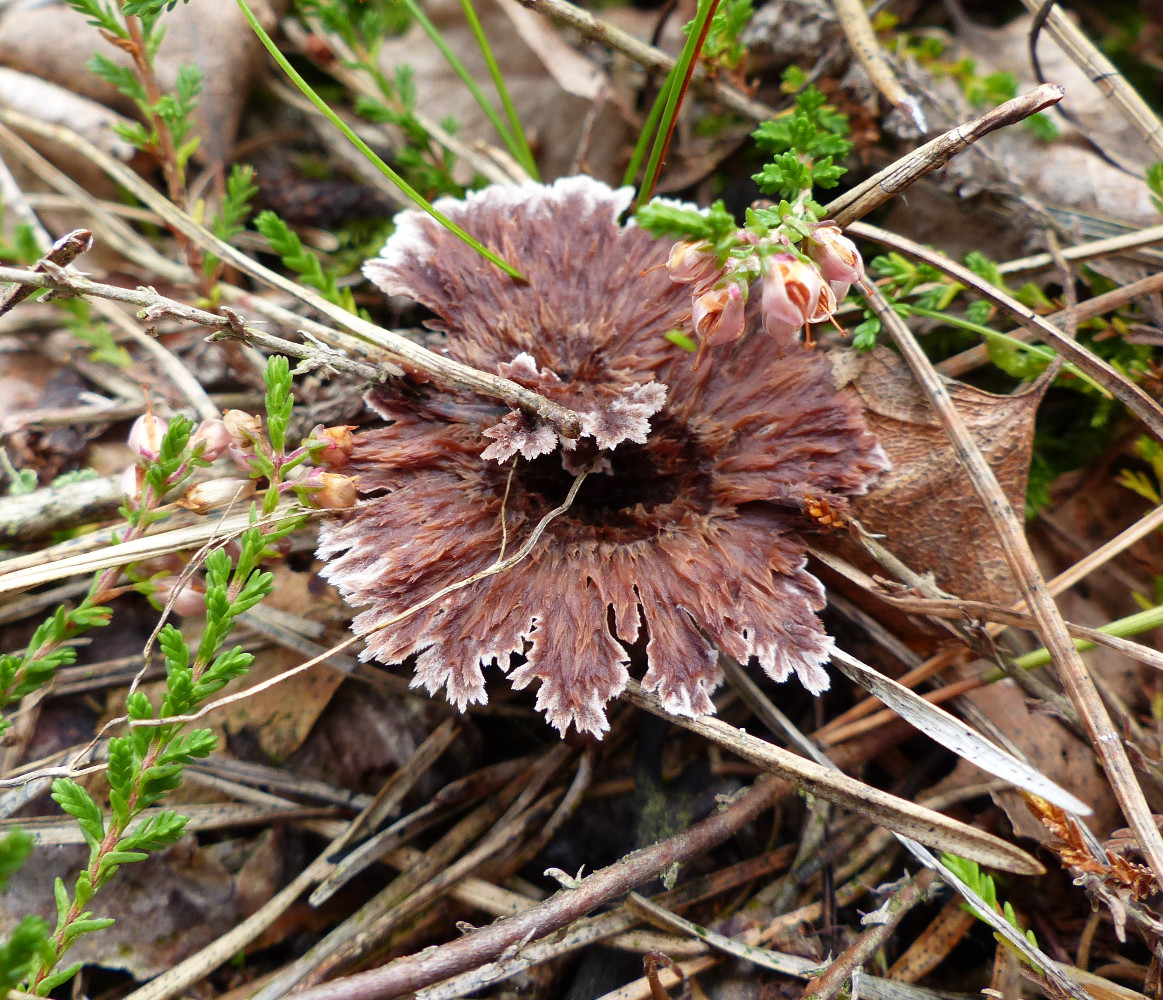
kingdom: Fungi
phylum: Basidiomycota
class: Agaricomycetes
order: Thelephorales
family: Thelephoraceae
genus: Thelephora
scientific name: Thelephora caryophyllea
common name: tragt-frynsesvamp
